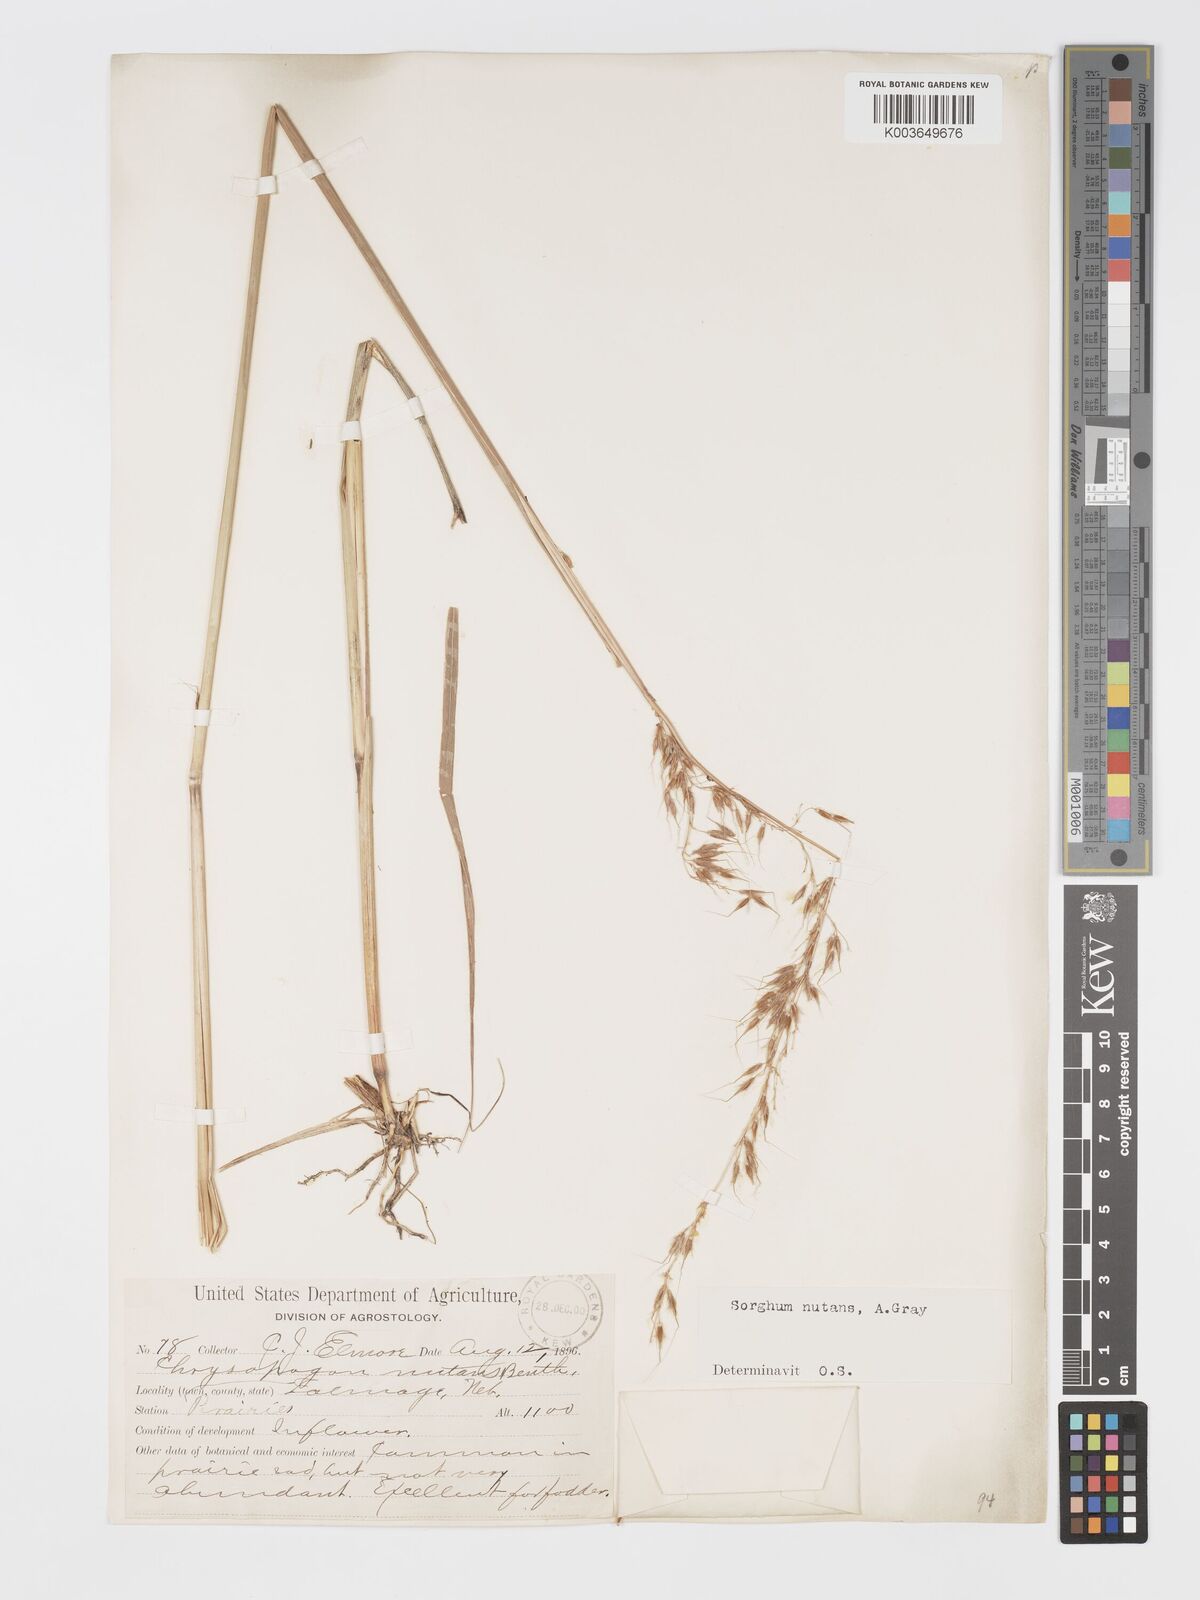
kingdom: Plantae
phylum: Tracheophyta
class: Liliopsida
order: Poales
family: Poaceae
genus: Sorghastrum
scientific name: Sorghastrum nutans
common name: Indian grass
